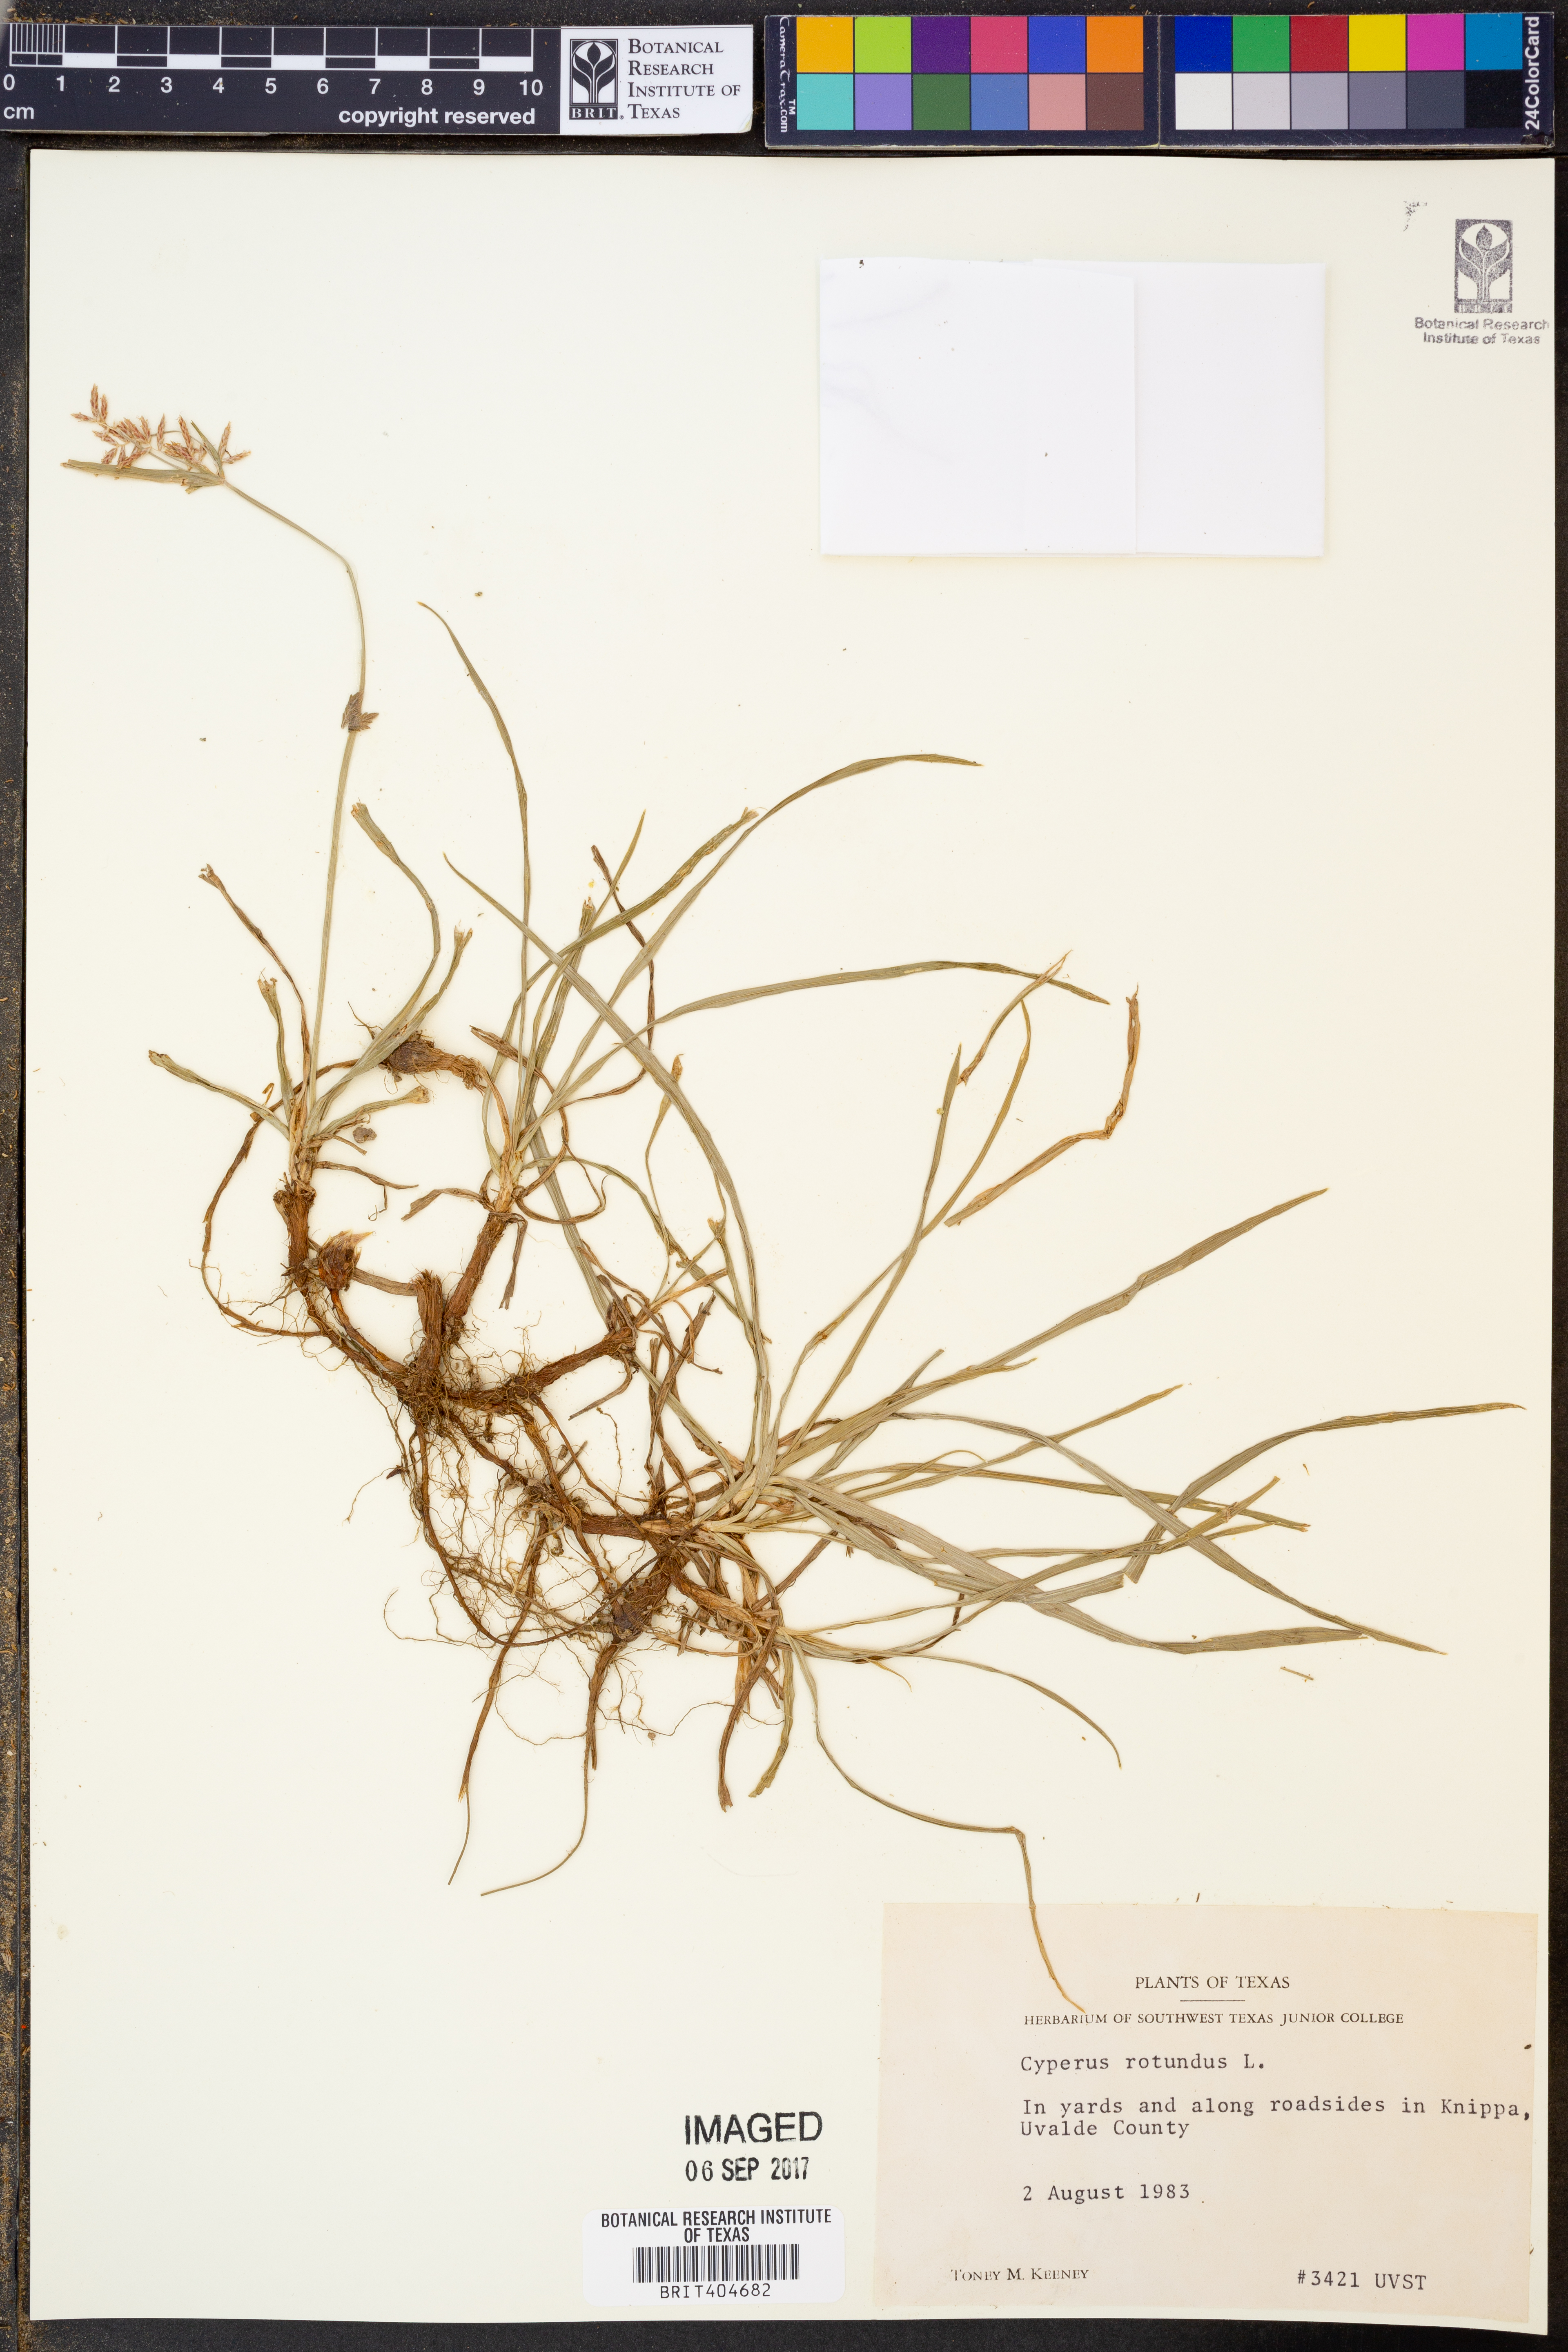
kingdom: Plantae
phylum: Tracheophyta
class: Liliopsida
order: Poales
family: Cyperaceae
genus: Cyperus
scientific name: Cyperus rotundus
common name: Nutgrass
